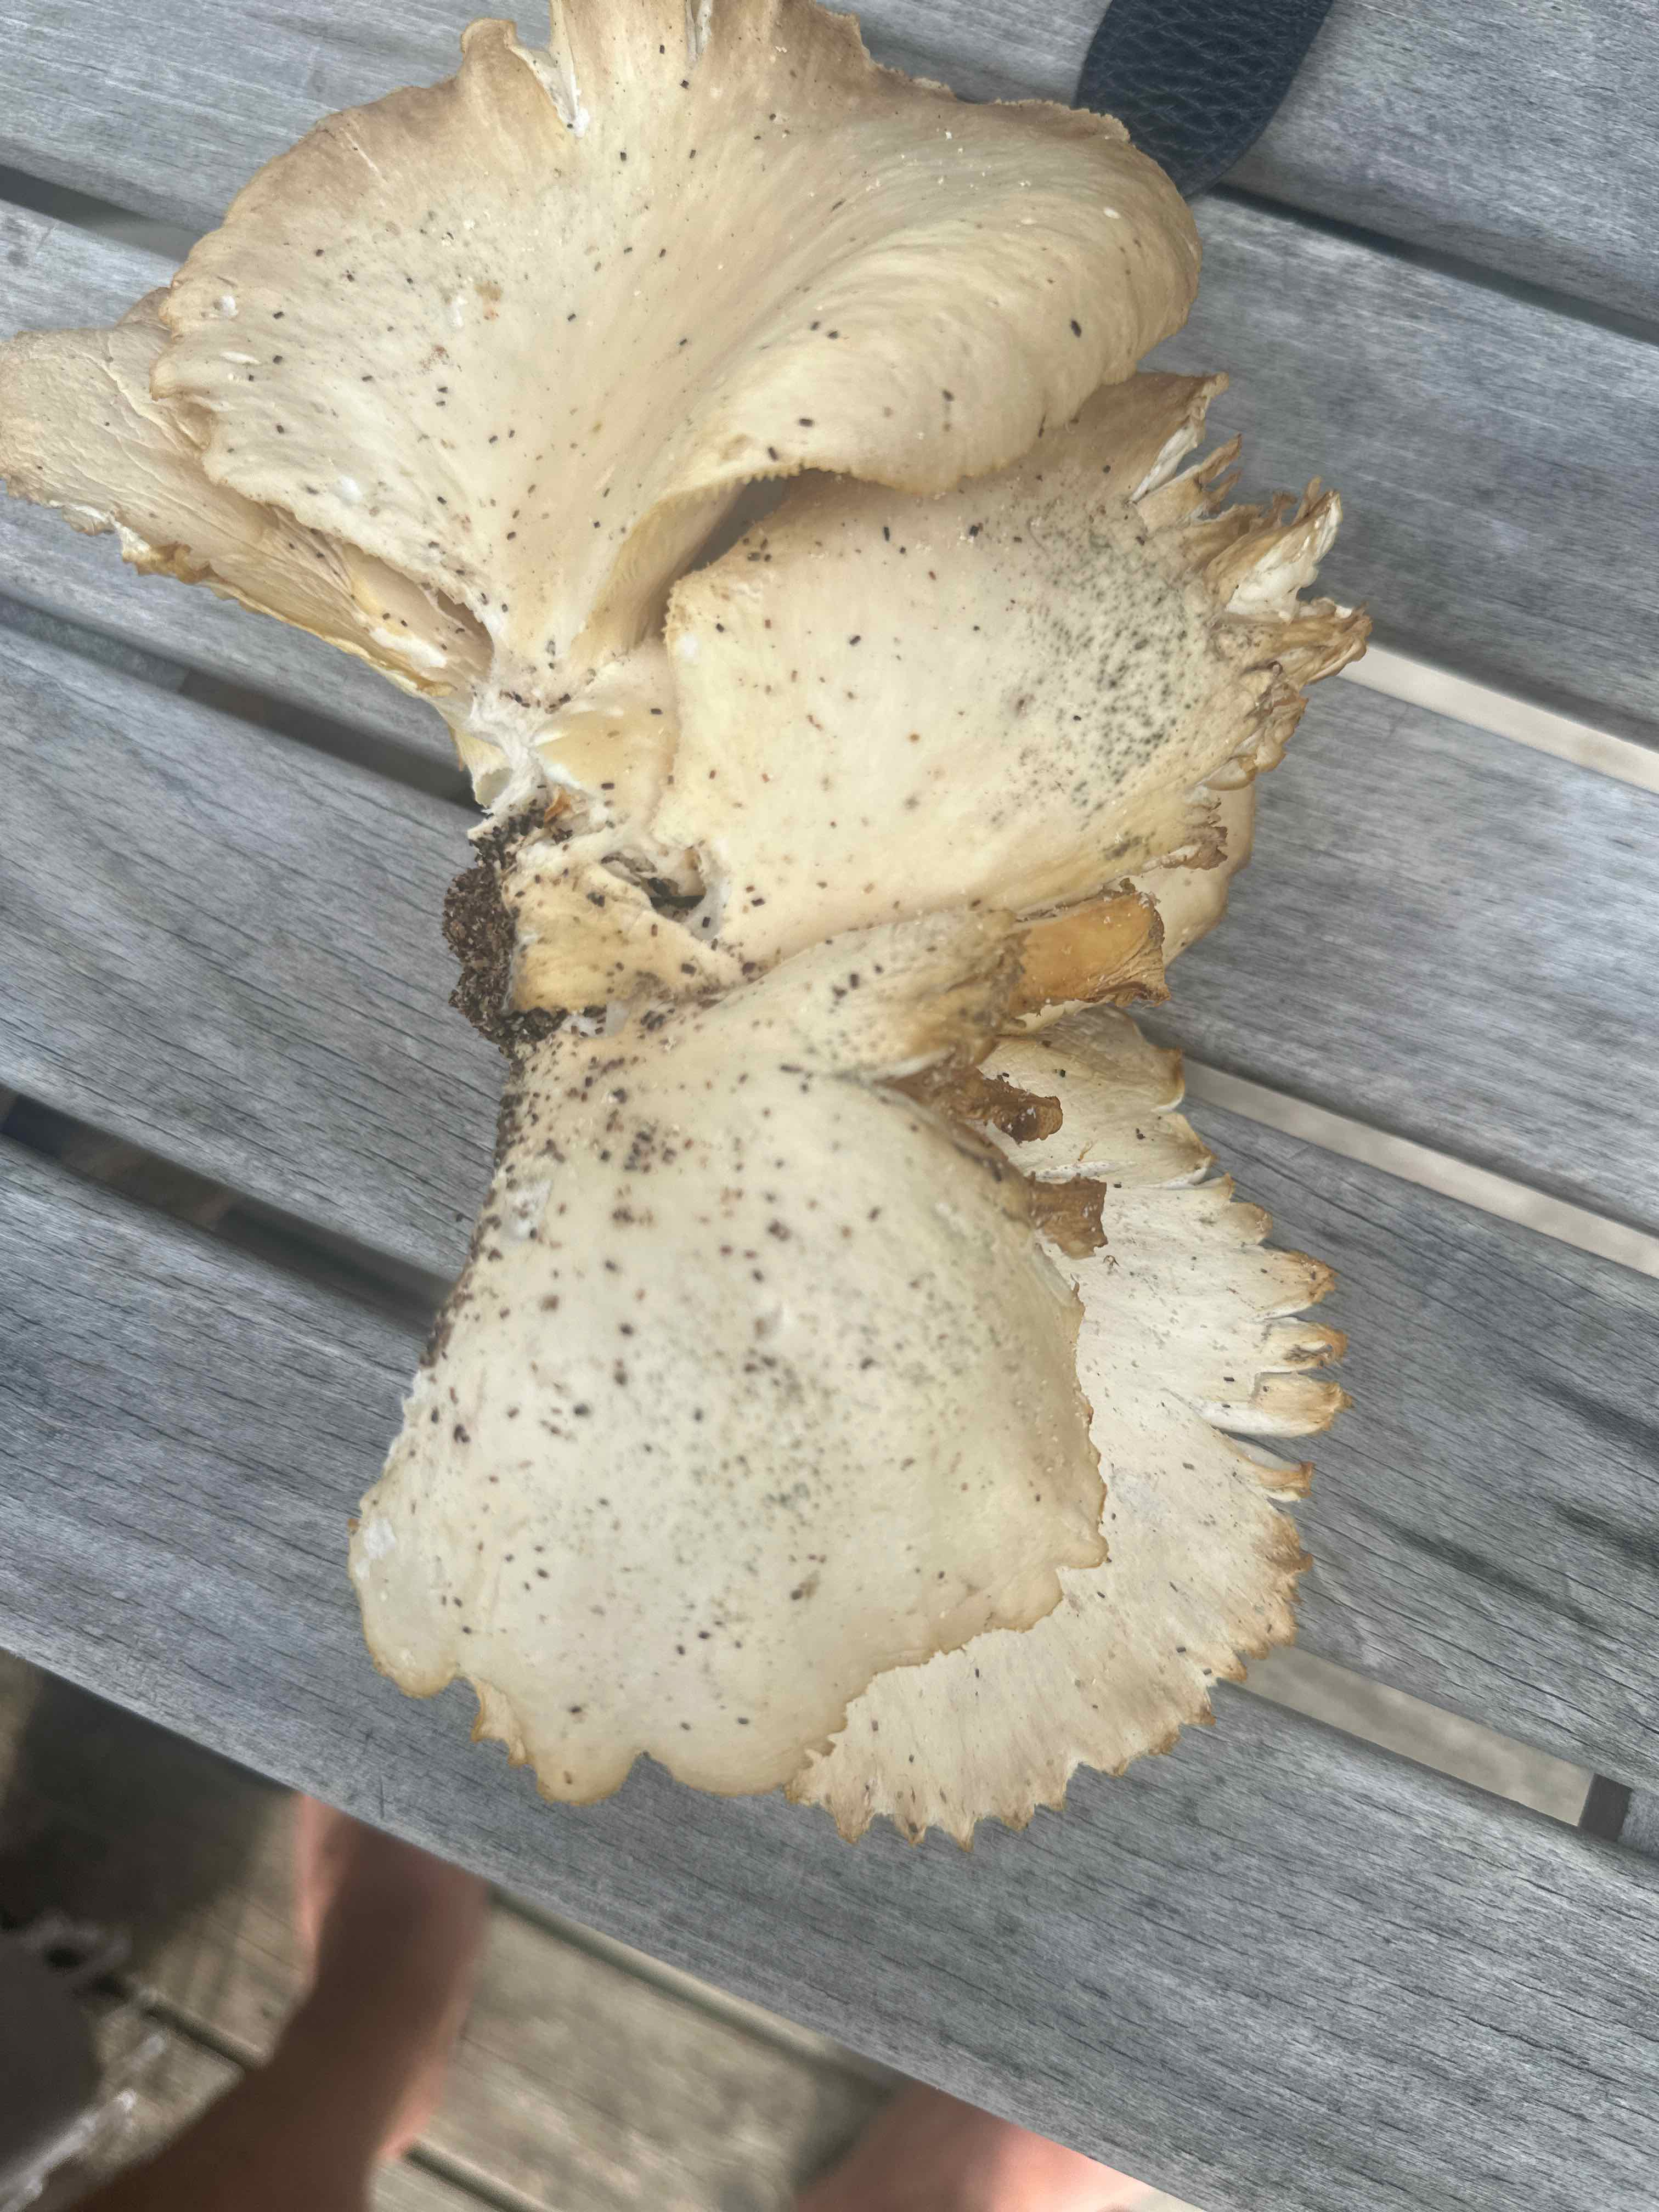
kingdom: Fungi
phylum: Basidiomycota
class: Agaricomycetes
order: Agaricales
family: Pleurotaceae
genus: Pleurotus
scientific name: Pleurotus pulmonarius
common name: sommer-østershat
